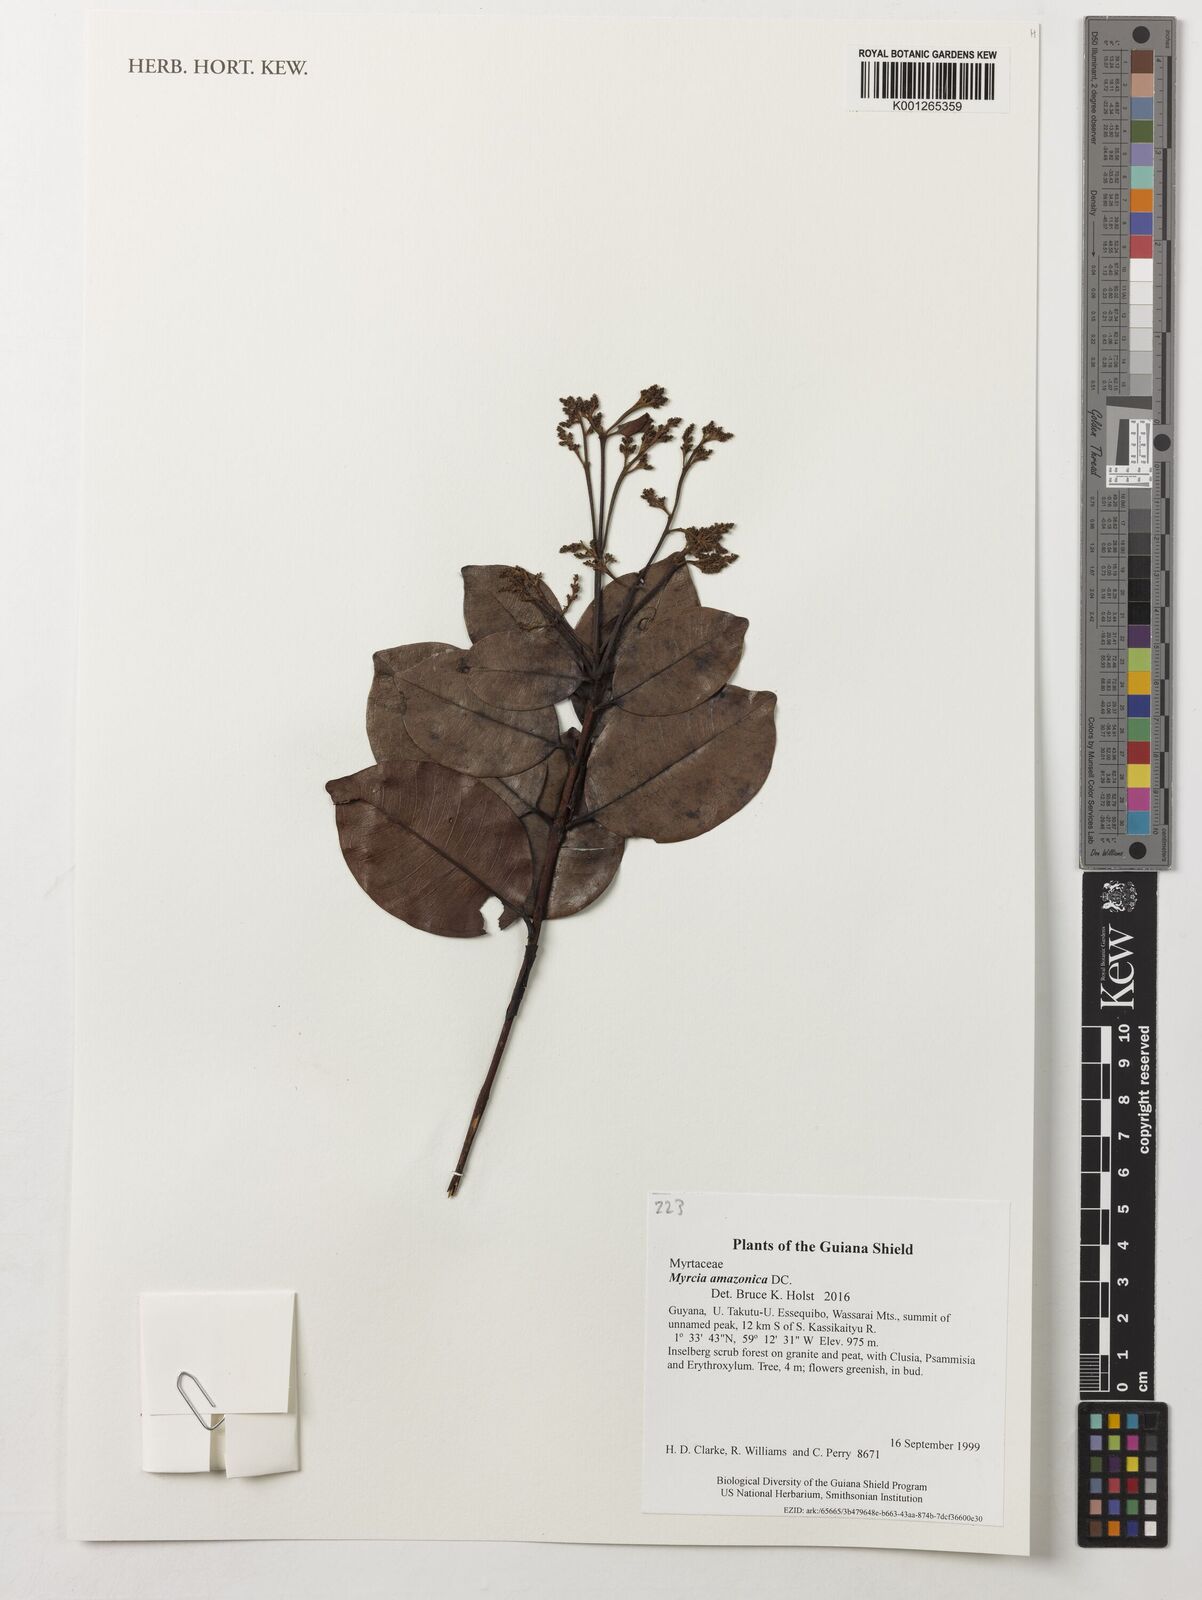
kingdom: Plantae
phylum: Tracheophyta
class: Magnoliopsida
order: Myrtales
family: Myrtaceae
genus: Myrcia
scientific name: Myrcia amazonica
